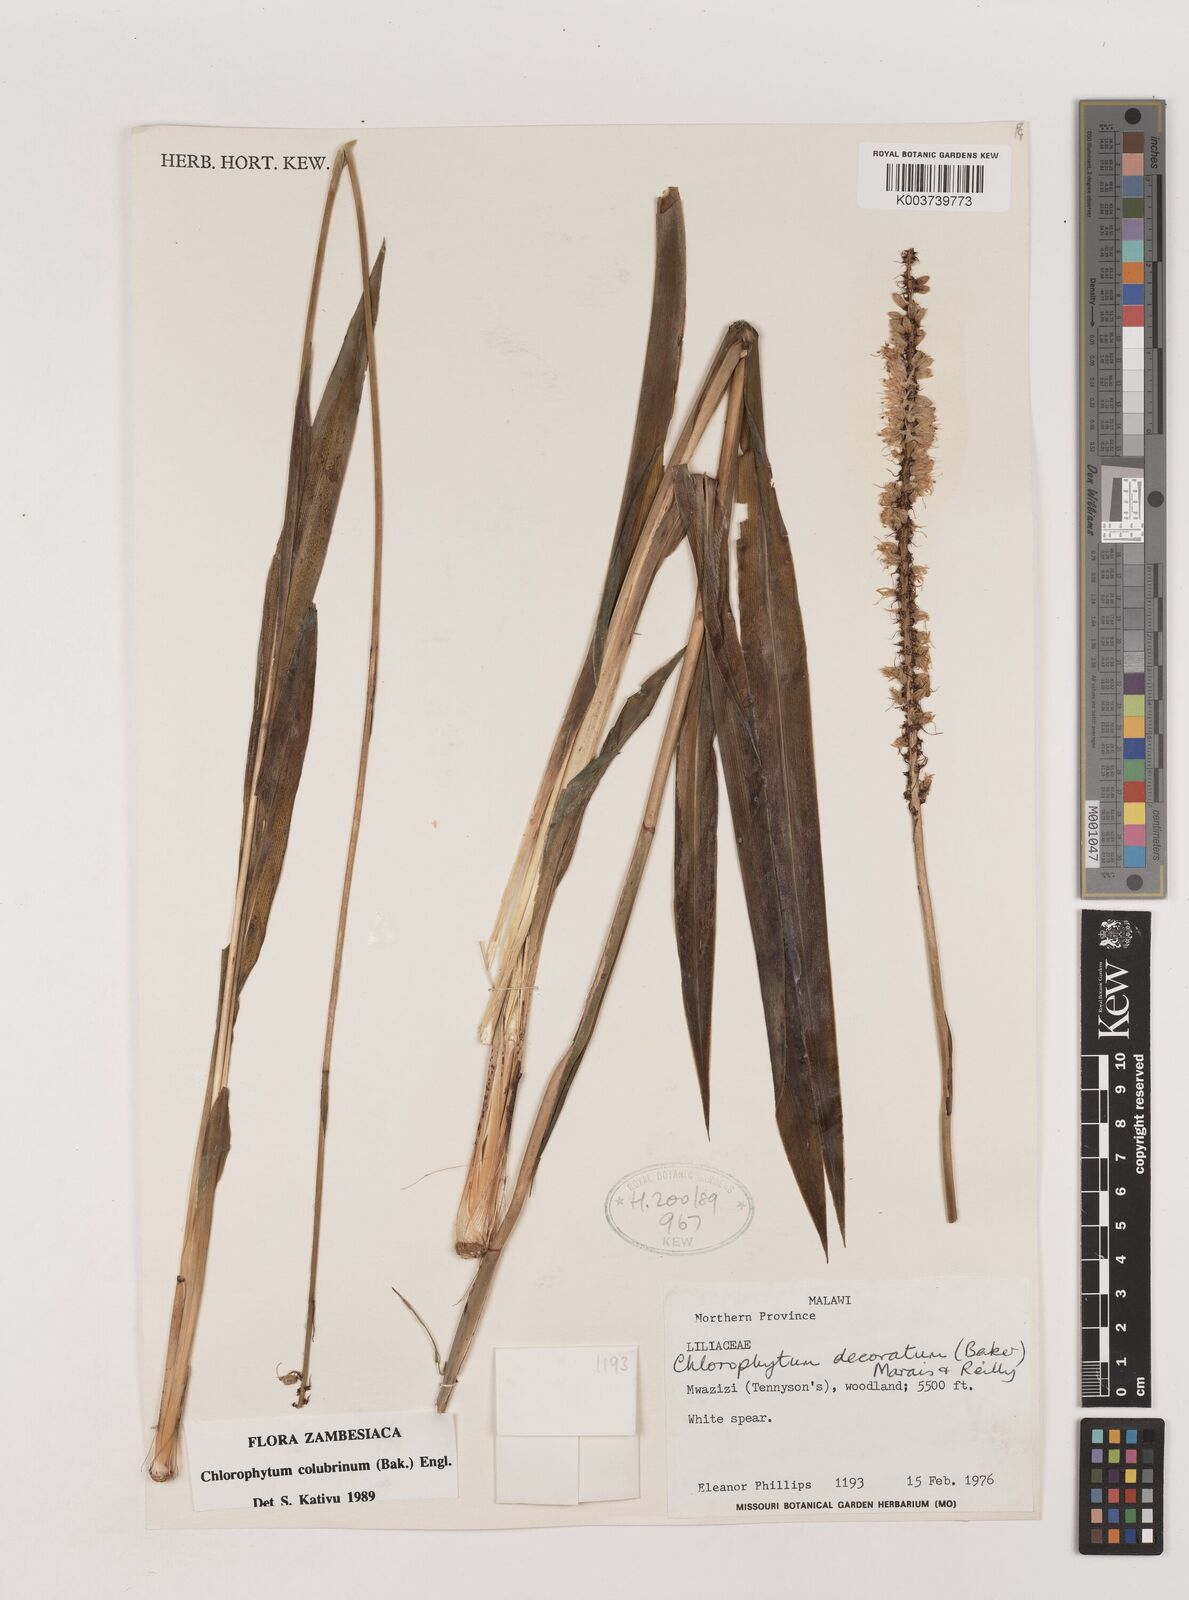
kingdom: Plantae
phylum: Tracheophyta
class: Liliopsida
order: Asparagales
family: Asparagaceae
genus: Chlorophytum
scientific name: Chlorophytum colubrinum
